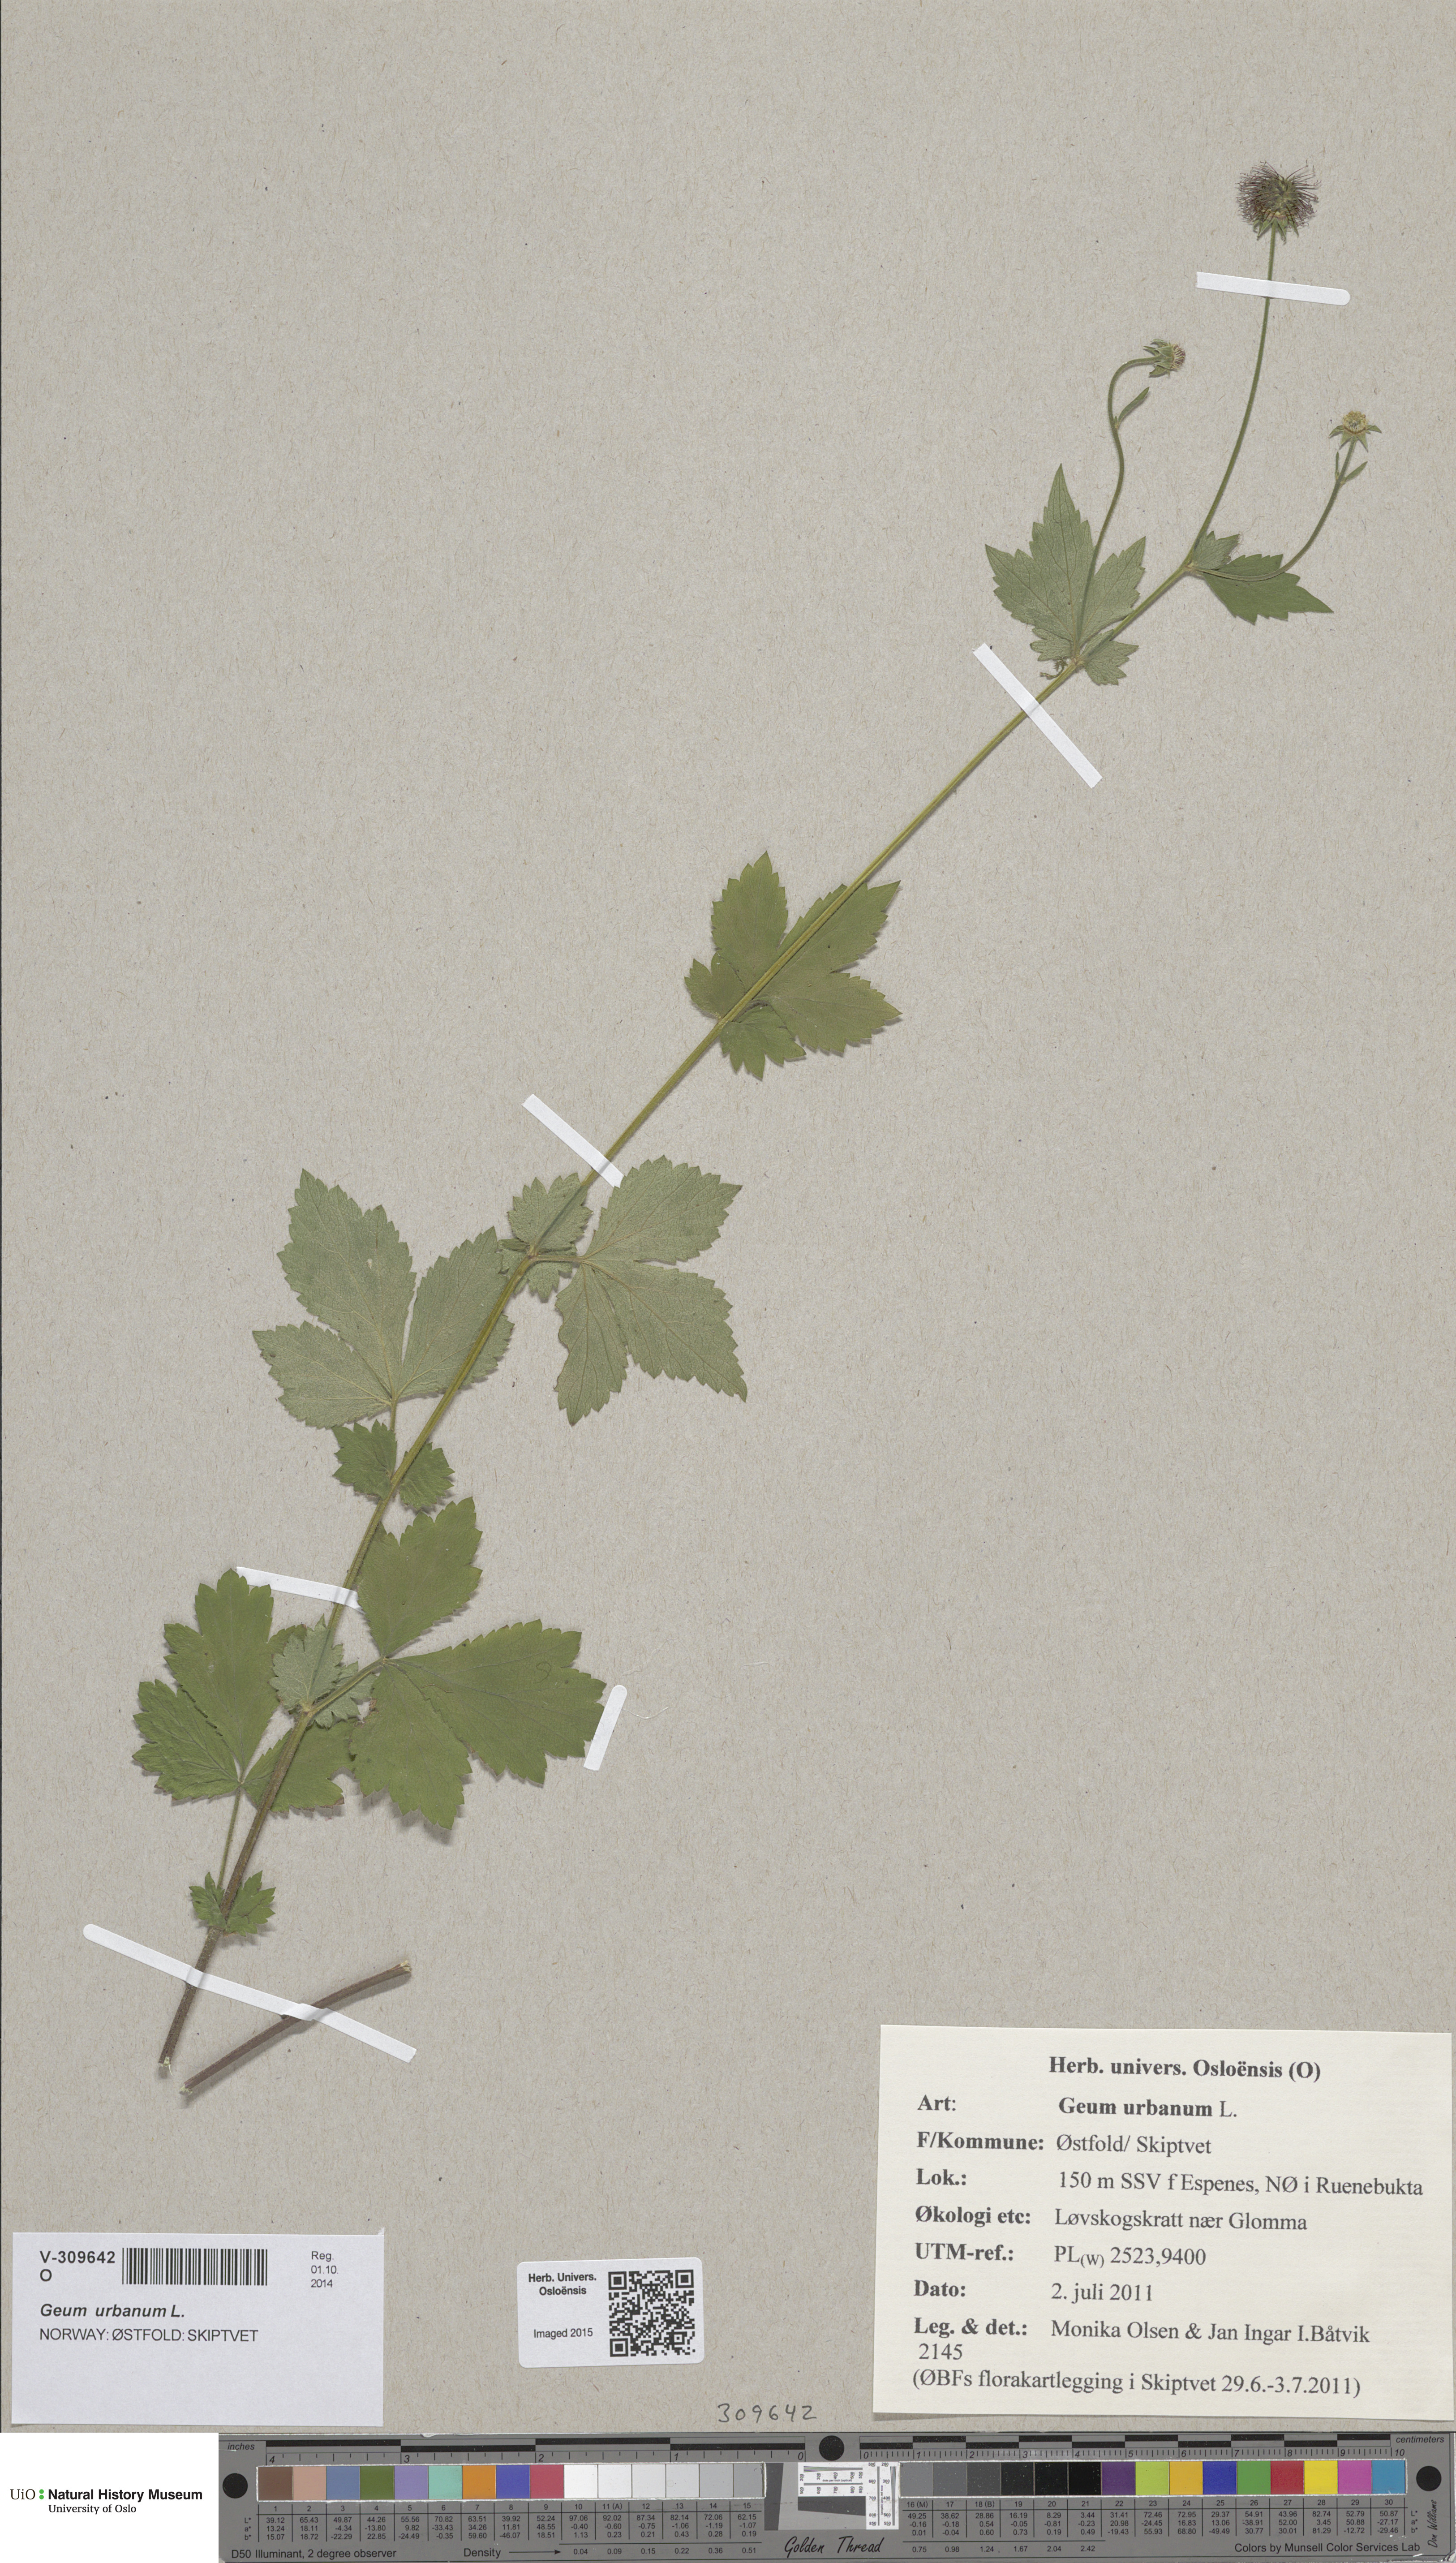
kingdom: Plantae
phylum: Tracheophyta
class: Magnoliopsida
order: Rosales
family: Rosaceae
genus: Geum
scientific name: Geum urbanum
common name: Wood avens
